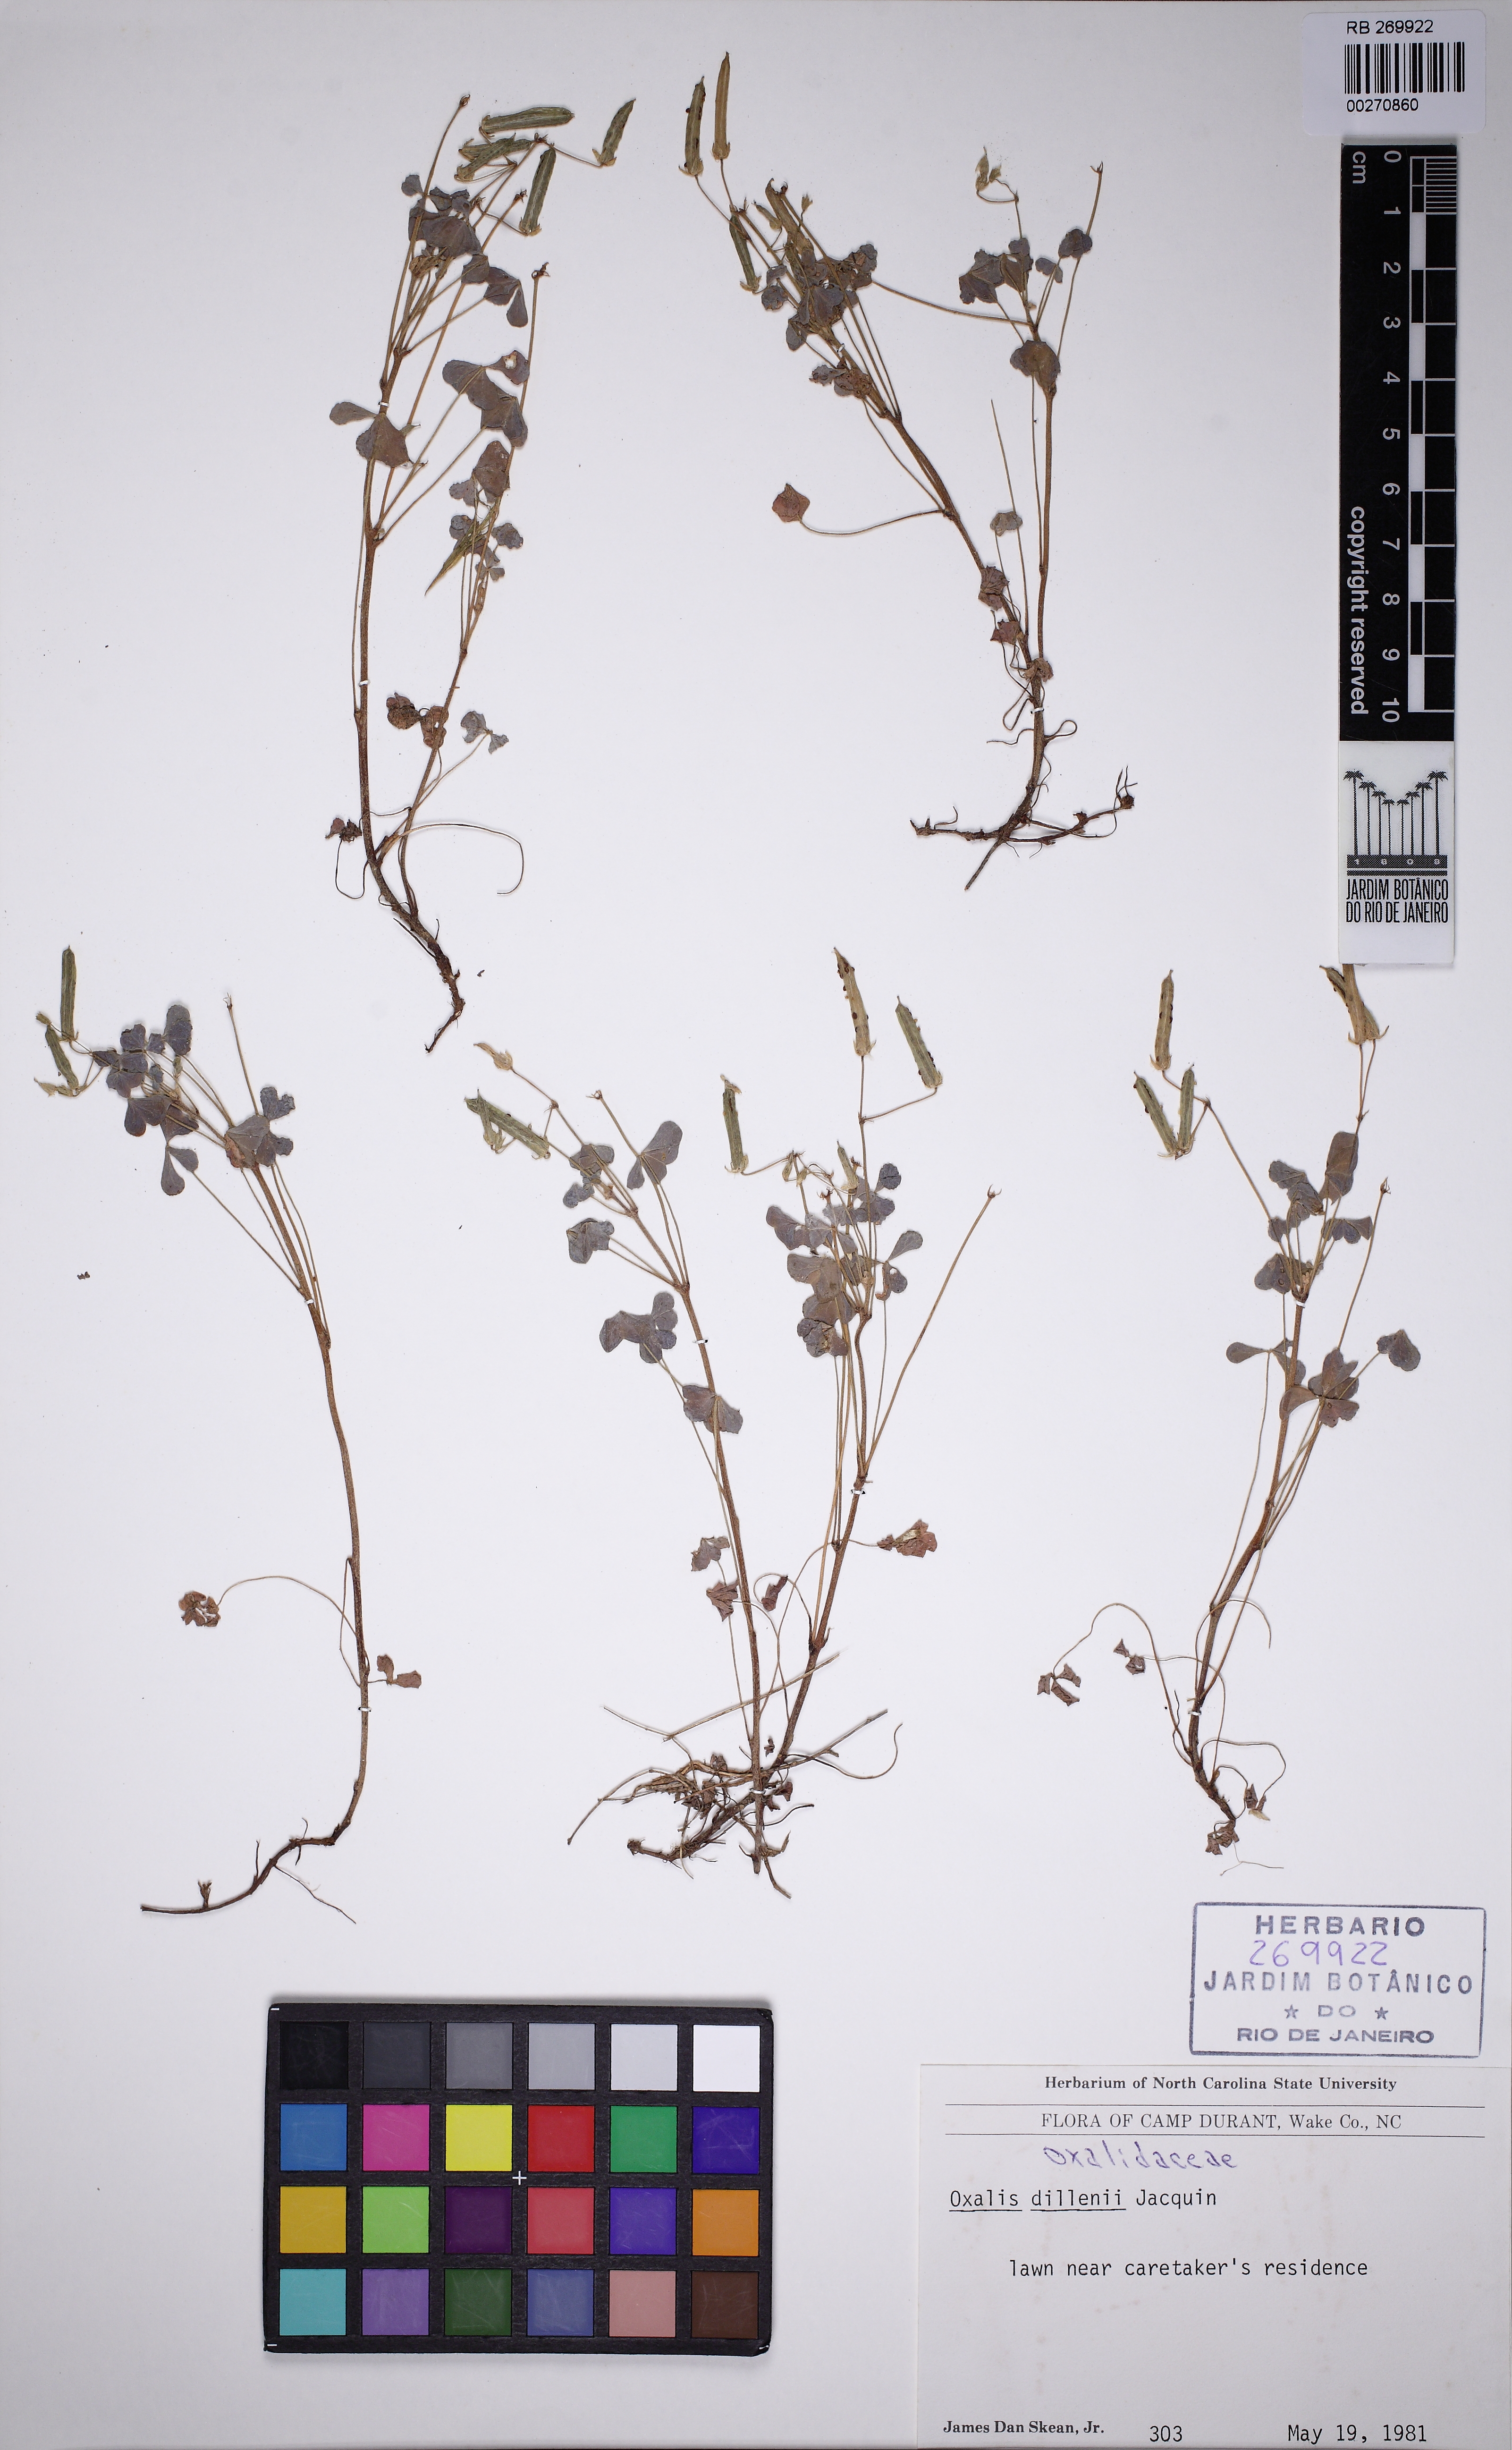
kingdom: Plantae
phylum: Tracheophyta
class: Magnoliopsida
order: Oxalidales
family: Oxalidaceae
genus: Oxalis
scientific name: Oxalis dillenii
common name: Sussex yellow-sorrel
